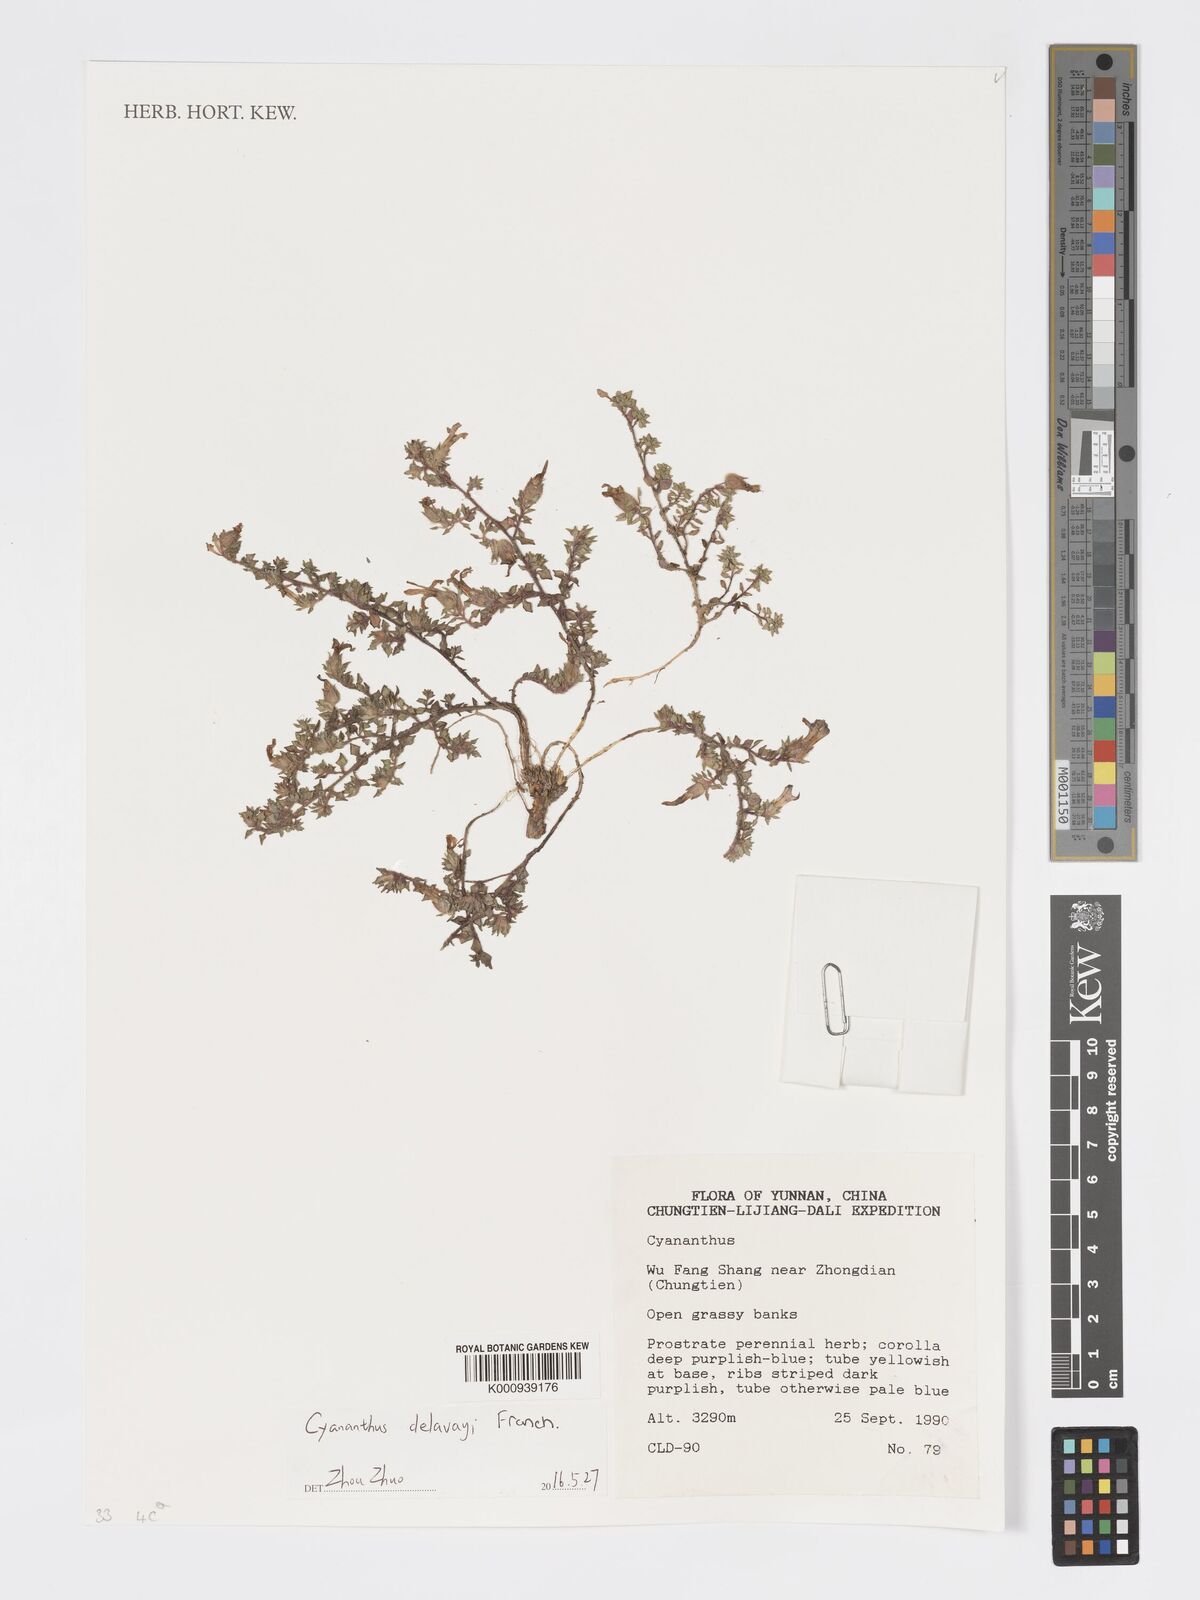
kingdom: Plantae
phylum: Tracheophyta
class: Magnoliopsida
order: Asterales
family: Campanulaceae
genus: Cyananthus
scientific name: Cyananthus delavayi
